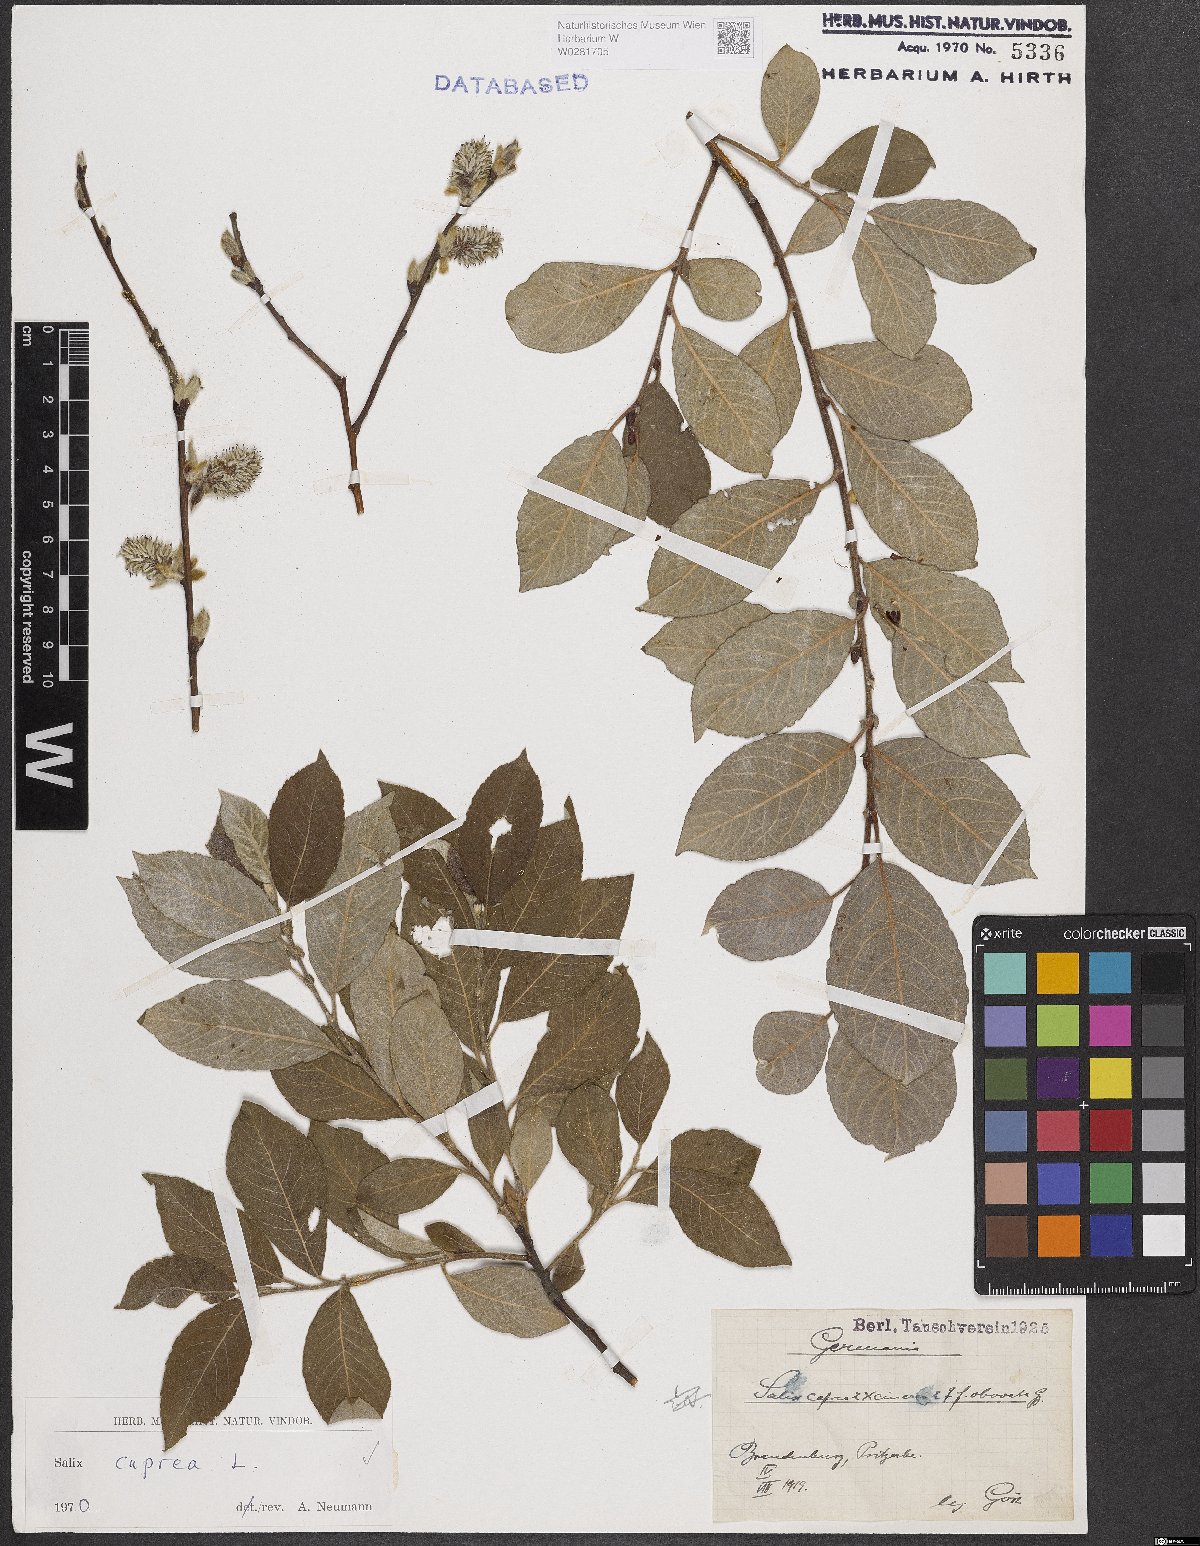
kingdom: Plantae
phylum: Tracheophyta
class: Magnoliopsida
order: Malpighiales
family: Salicaceae
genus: Salix
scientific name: Salix caprea
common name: Goat willow
